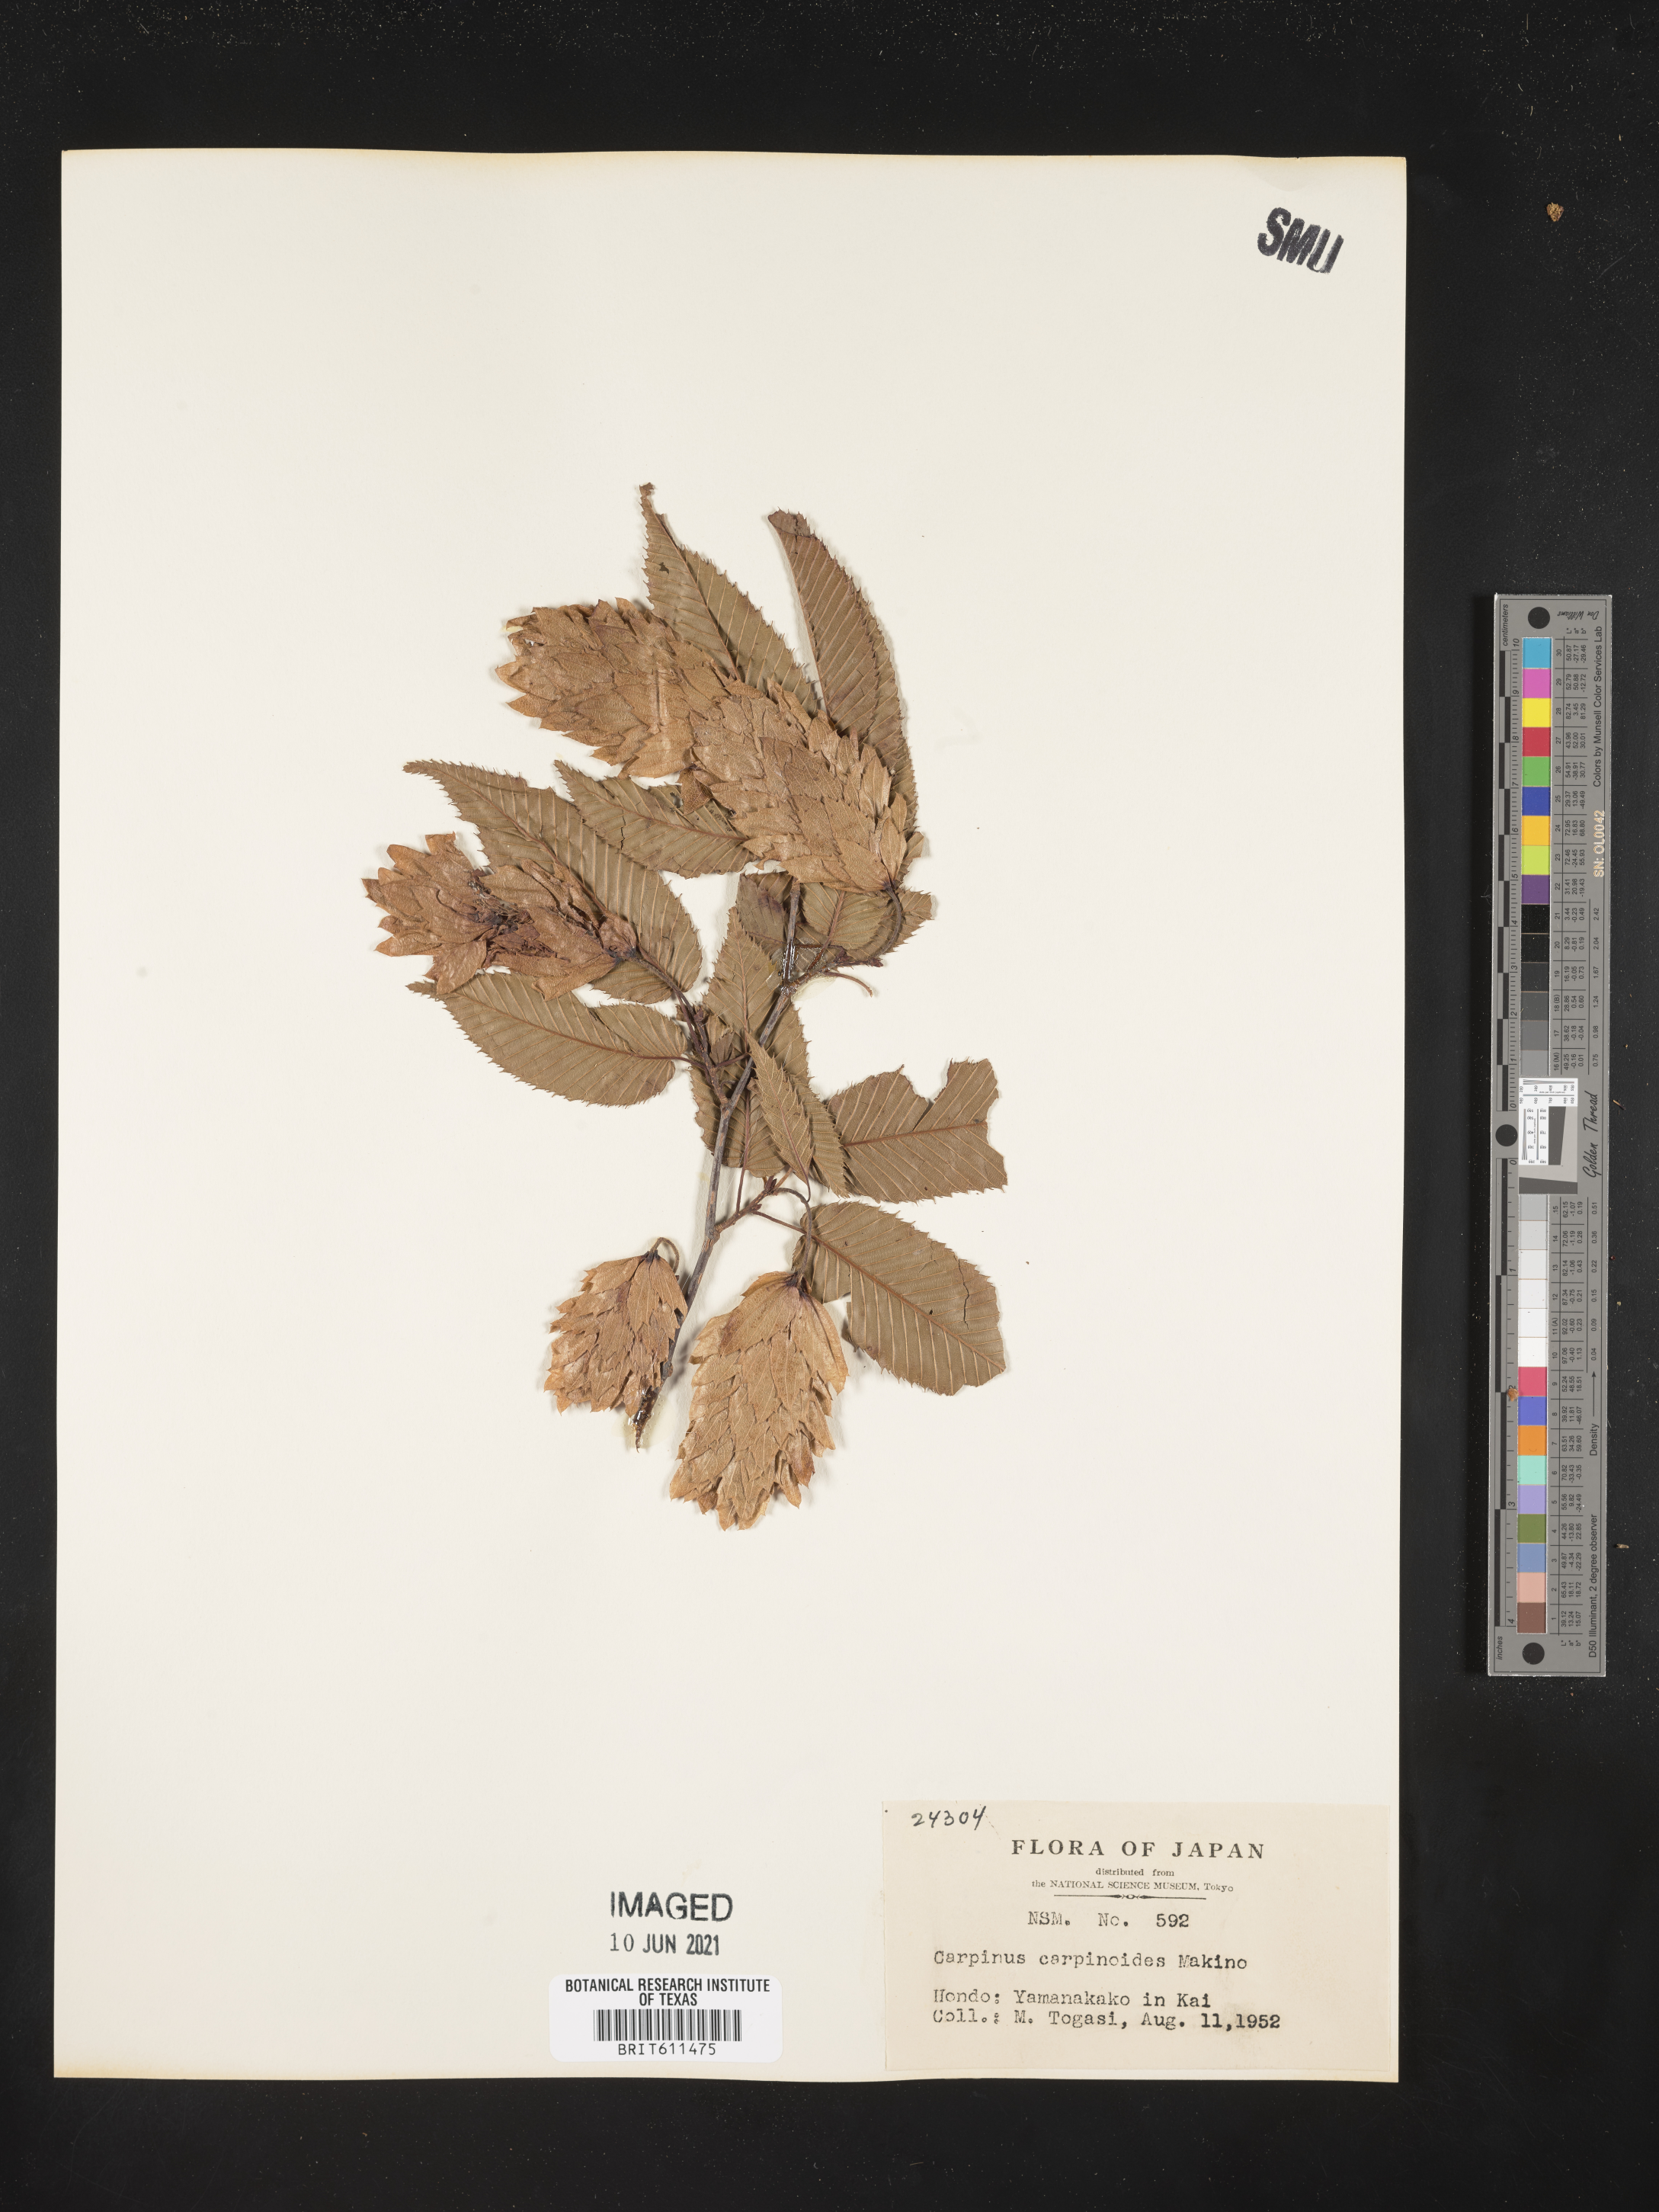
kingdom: Plantae
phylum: Tracheophyta
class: Magnoliopsida
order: Fagales
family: Betulaceae
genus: Carpinus
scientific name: Carpinus japonica
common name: Japanese hornbeam
